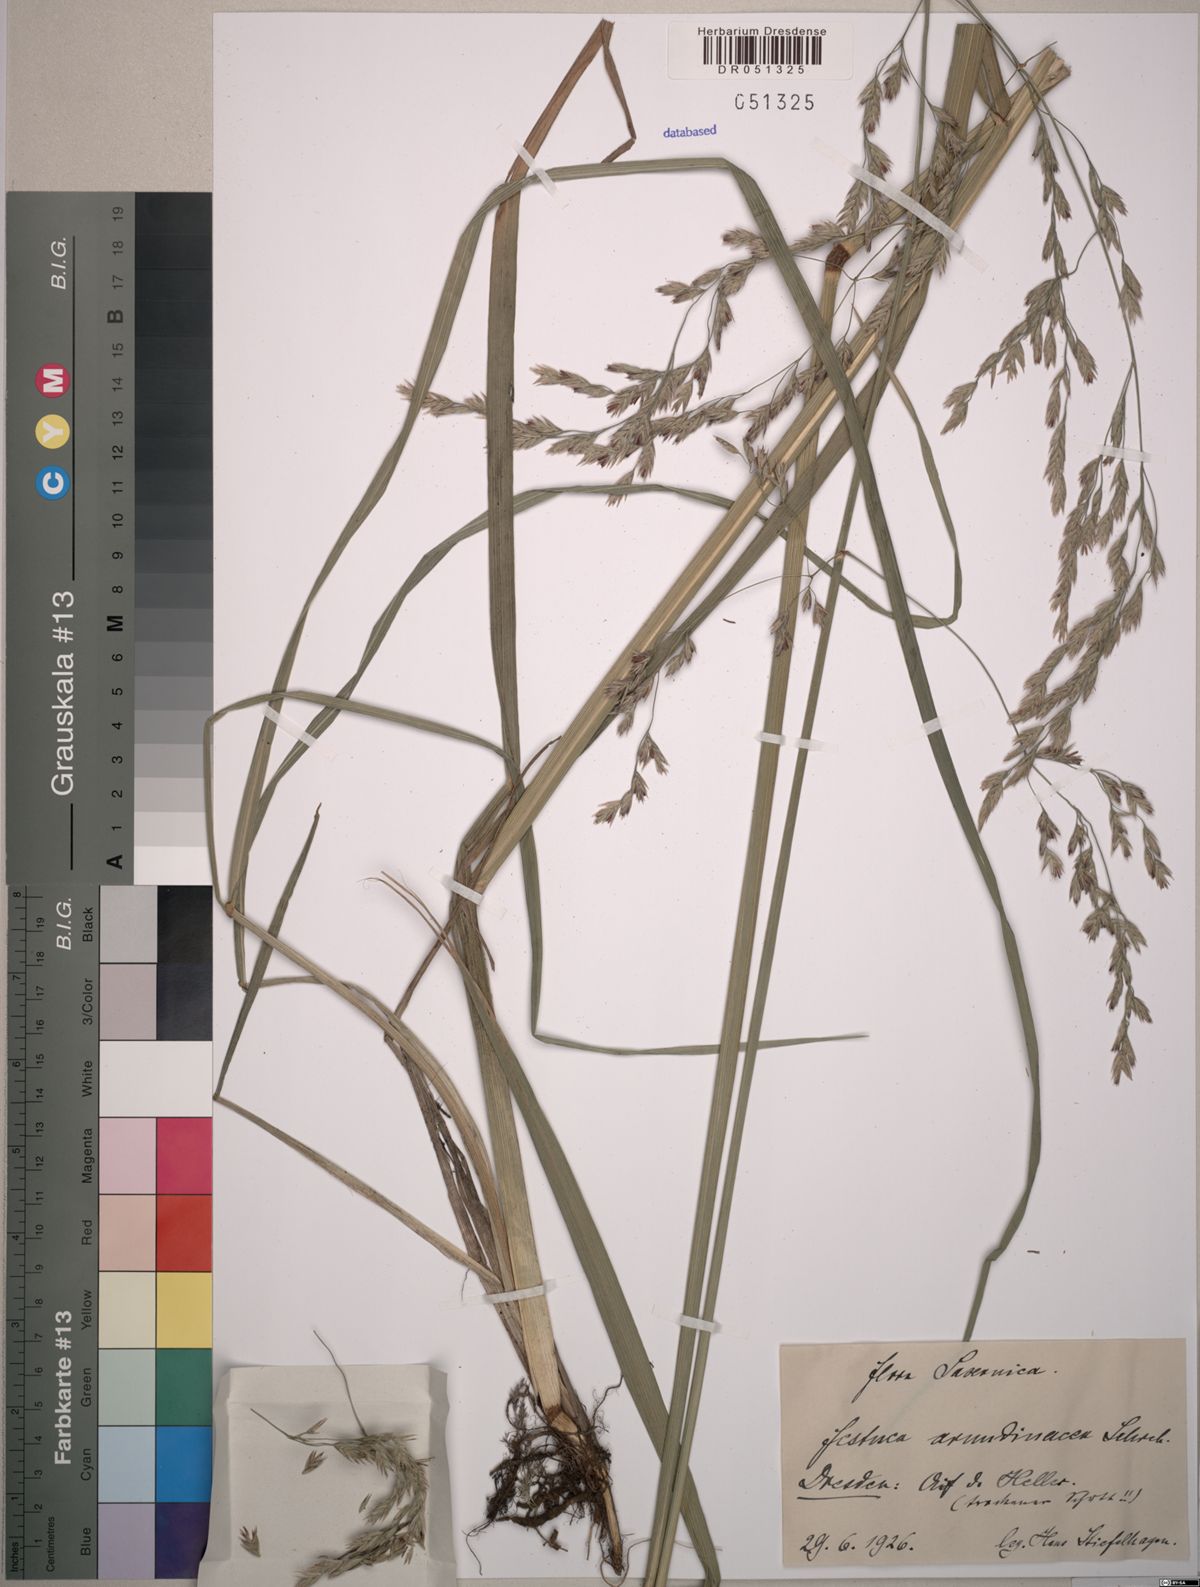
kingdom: Plantae
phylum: Tracheophyta
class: Liliopsida
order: Poales
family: Poaceae
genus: Lolium
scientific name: Lolium arundinaceum
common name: Reed fescue
